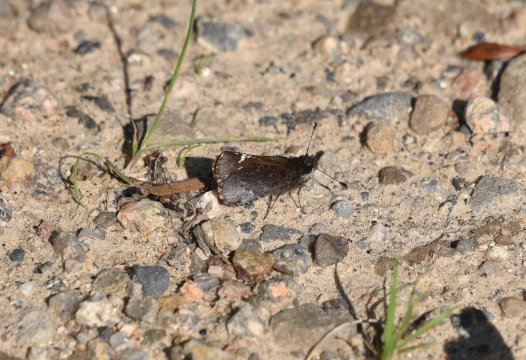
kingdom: Animalia
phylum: Arthropoda
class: Insecta
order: Lepidoptera
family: Hesperiidae
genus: Mastor
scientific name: Mastor vialis
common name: Common Roadside-Skipper
